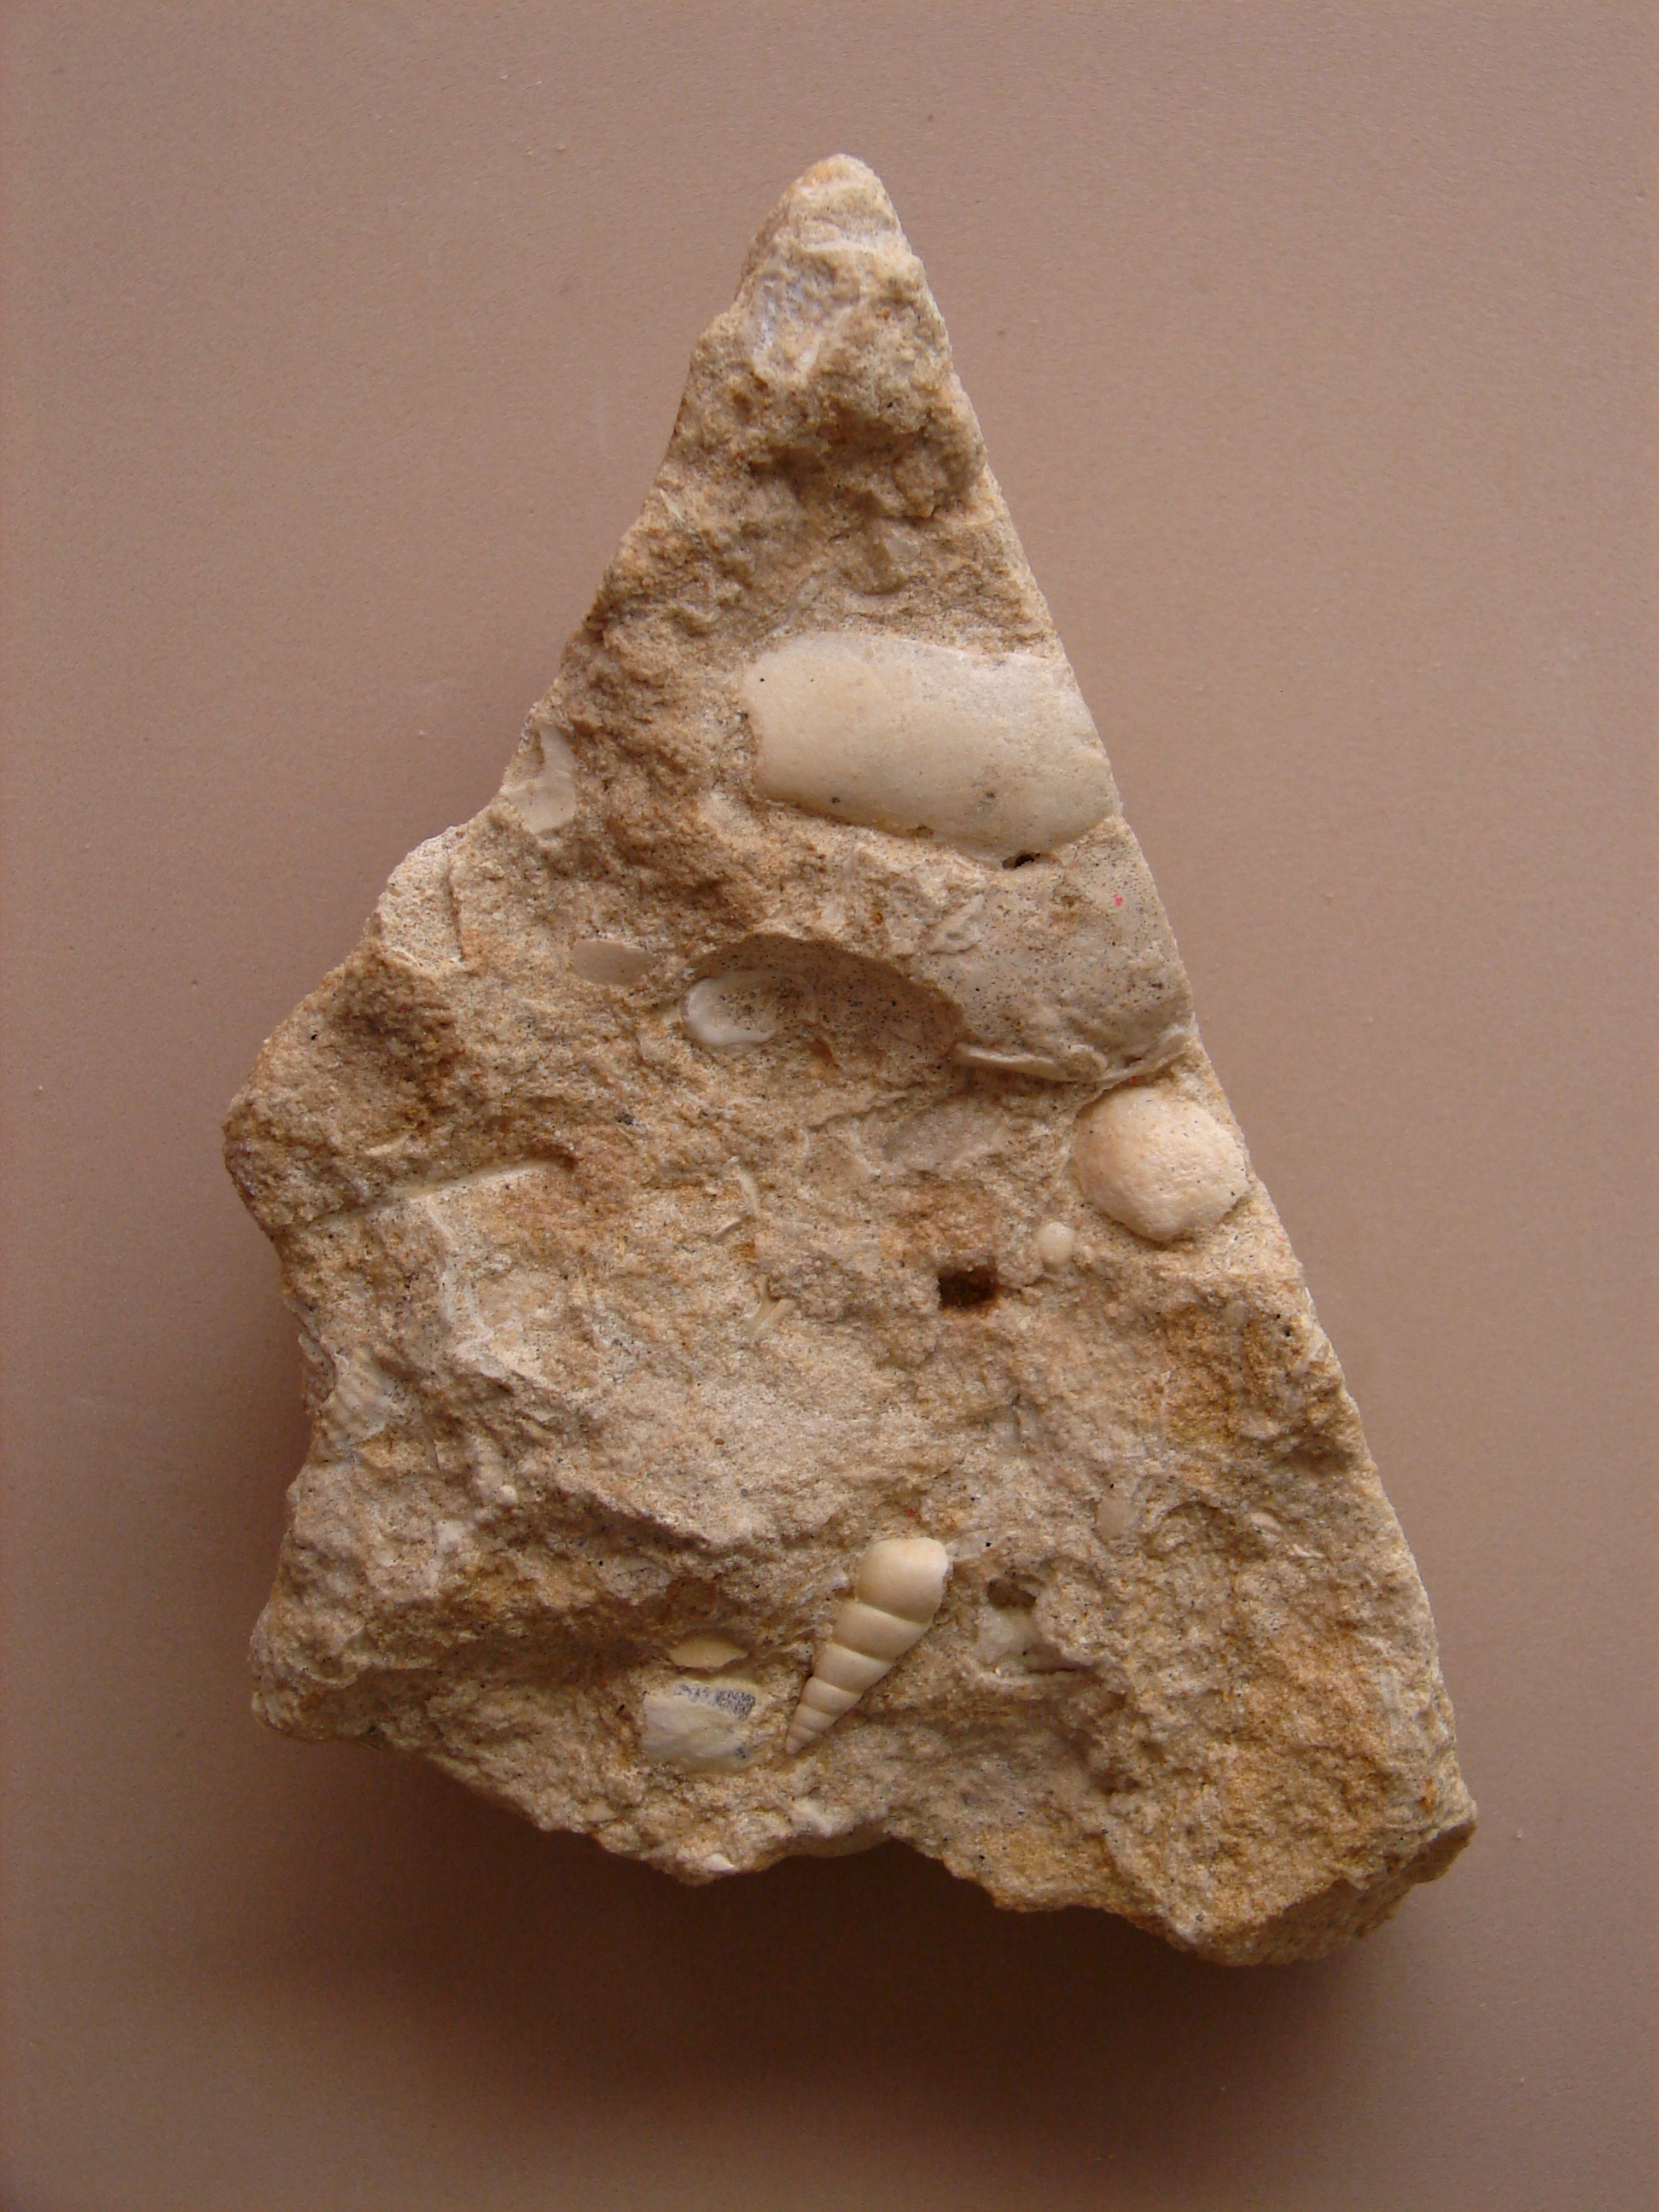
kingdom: Animalia
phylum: Mollusca
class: Gastropoda
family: Pseudomelaniidae
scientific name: Pseudomelaniidae
